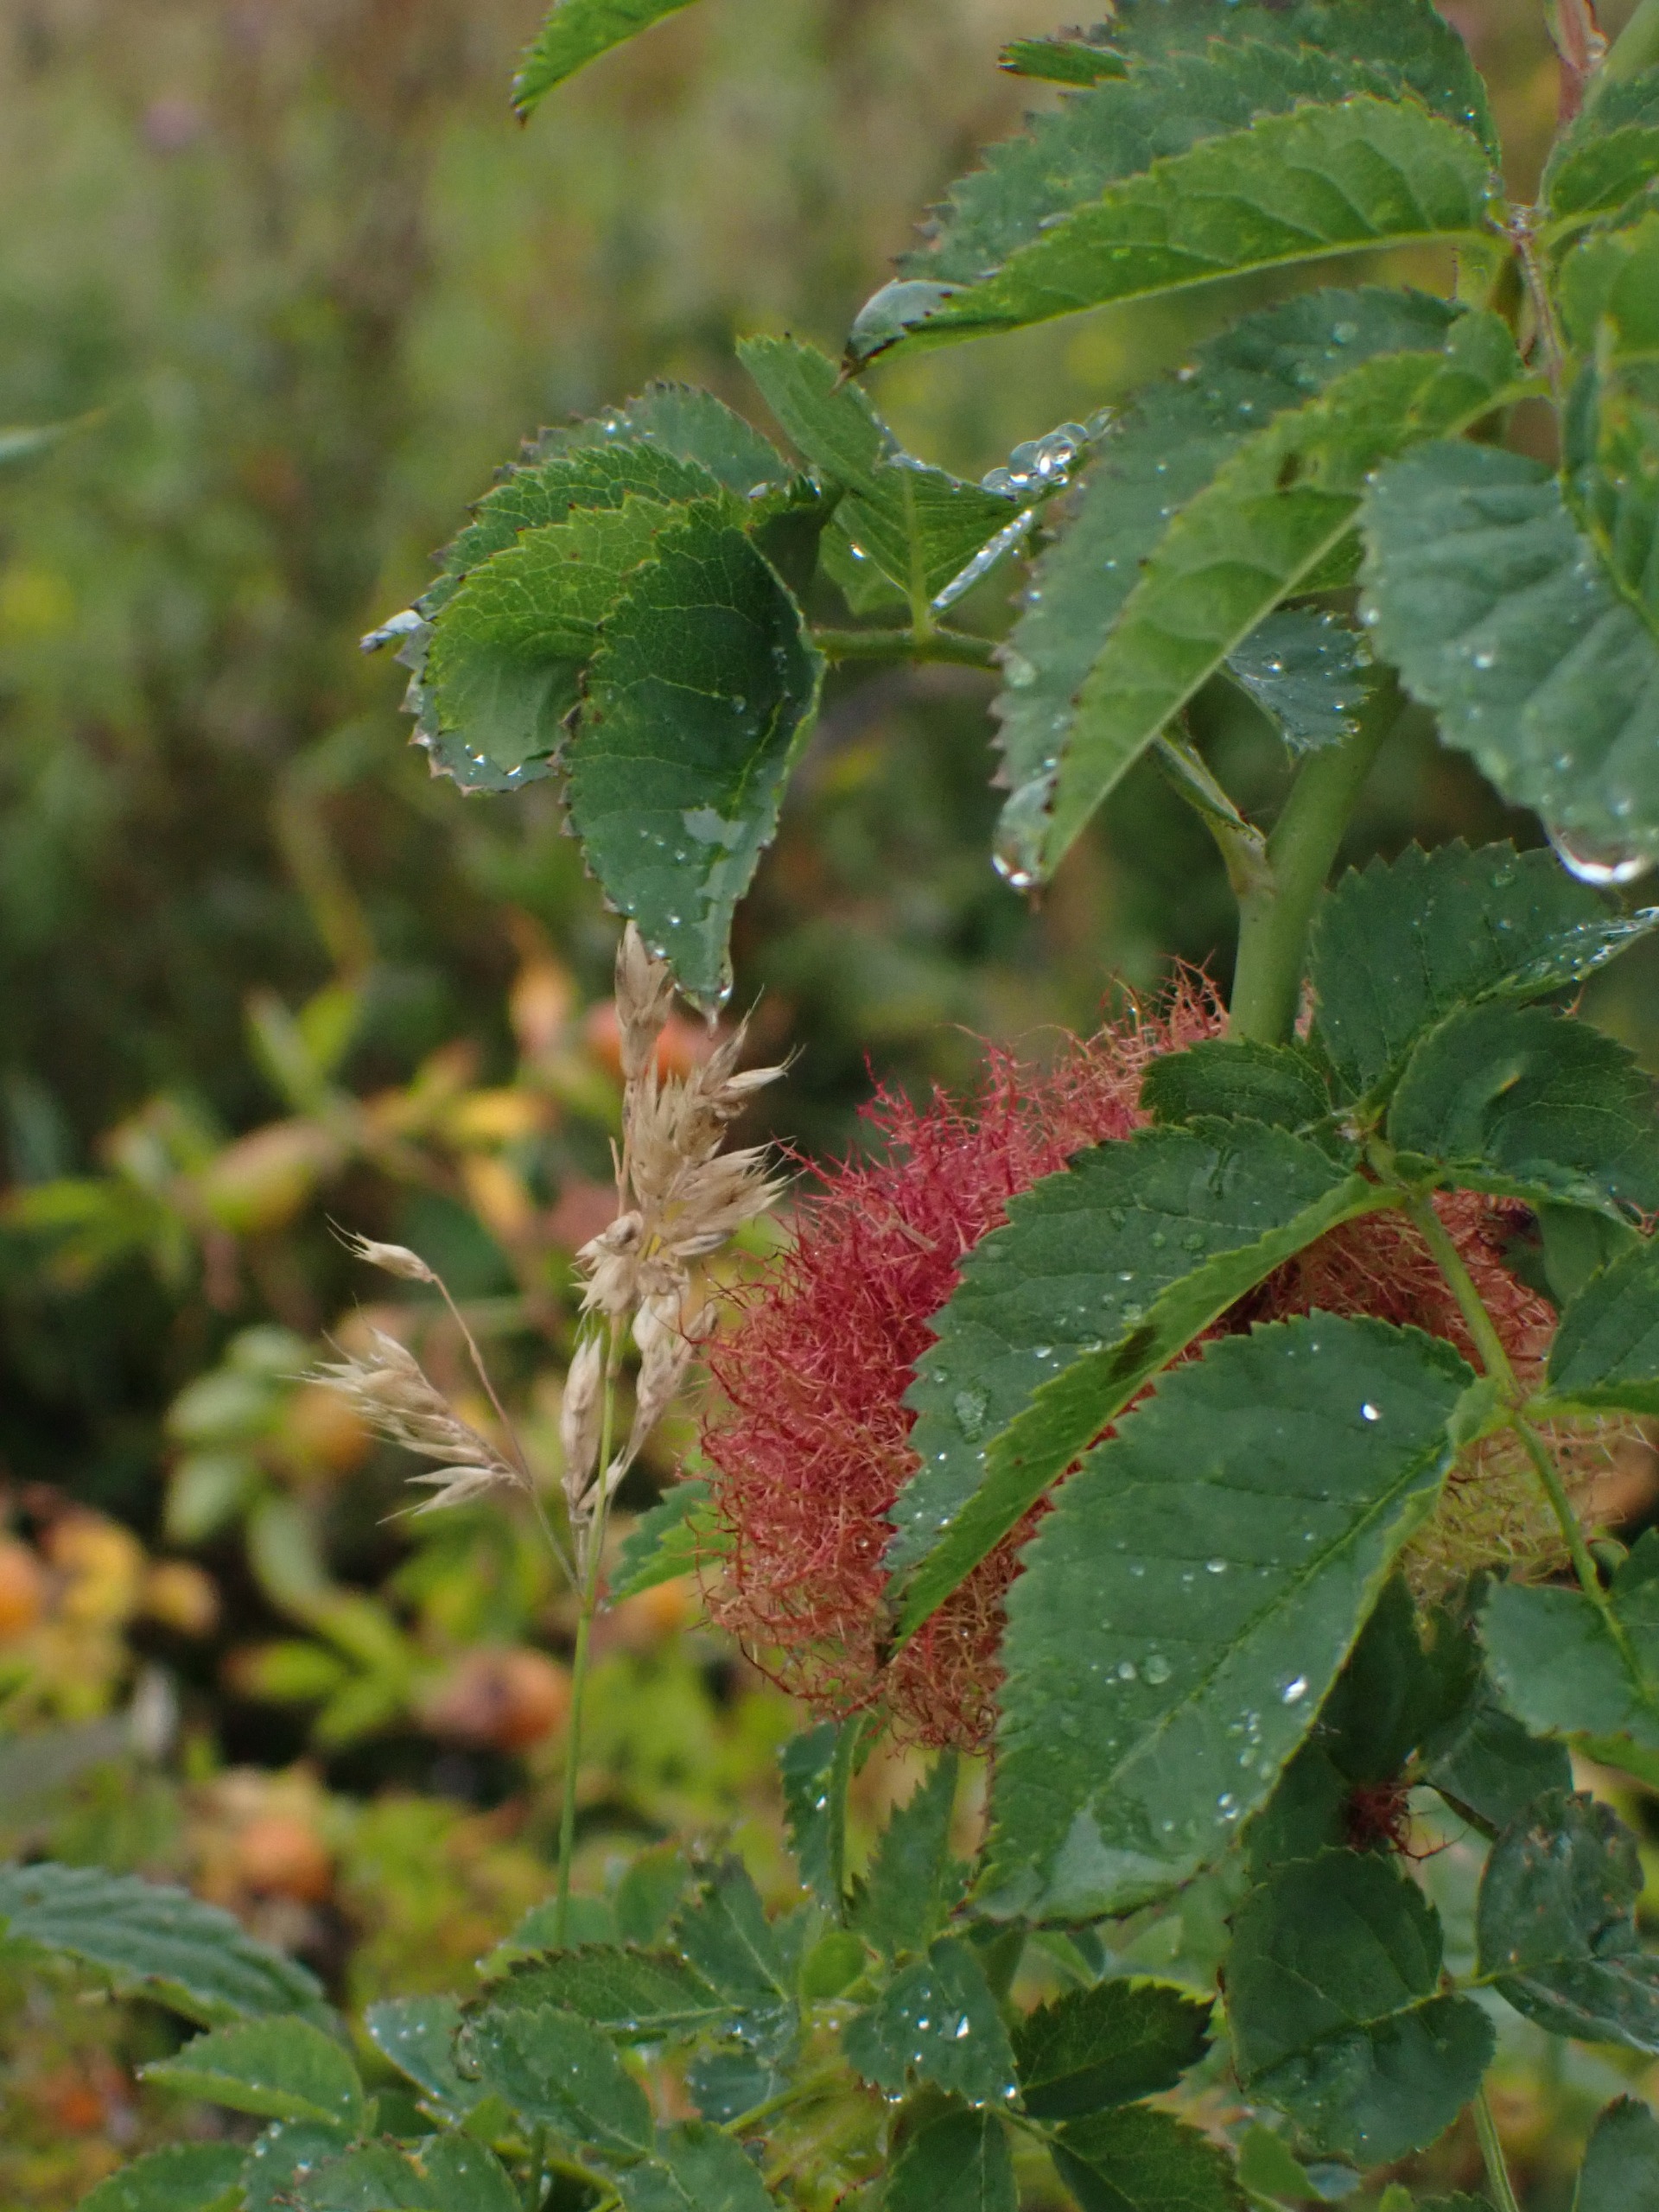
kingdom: Animalia
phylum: Arthropoda
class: Insecta
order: Hymenoptera
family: Cynipidae
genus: Diplolepis
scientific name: Diplolepis rosae
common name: Bedeguargalhveps
